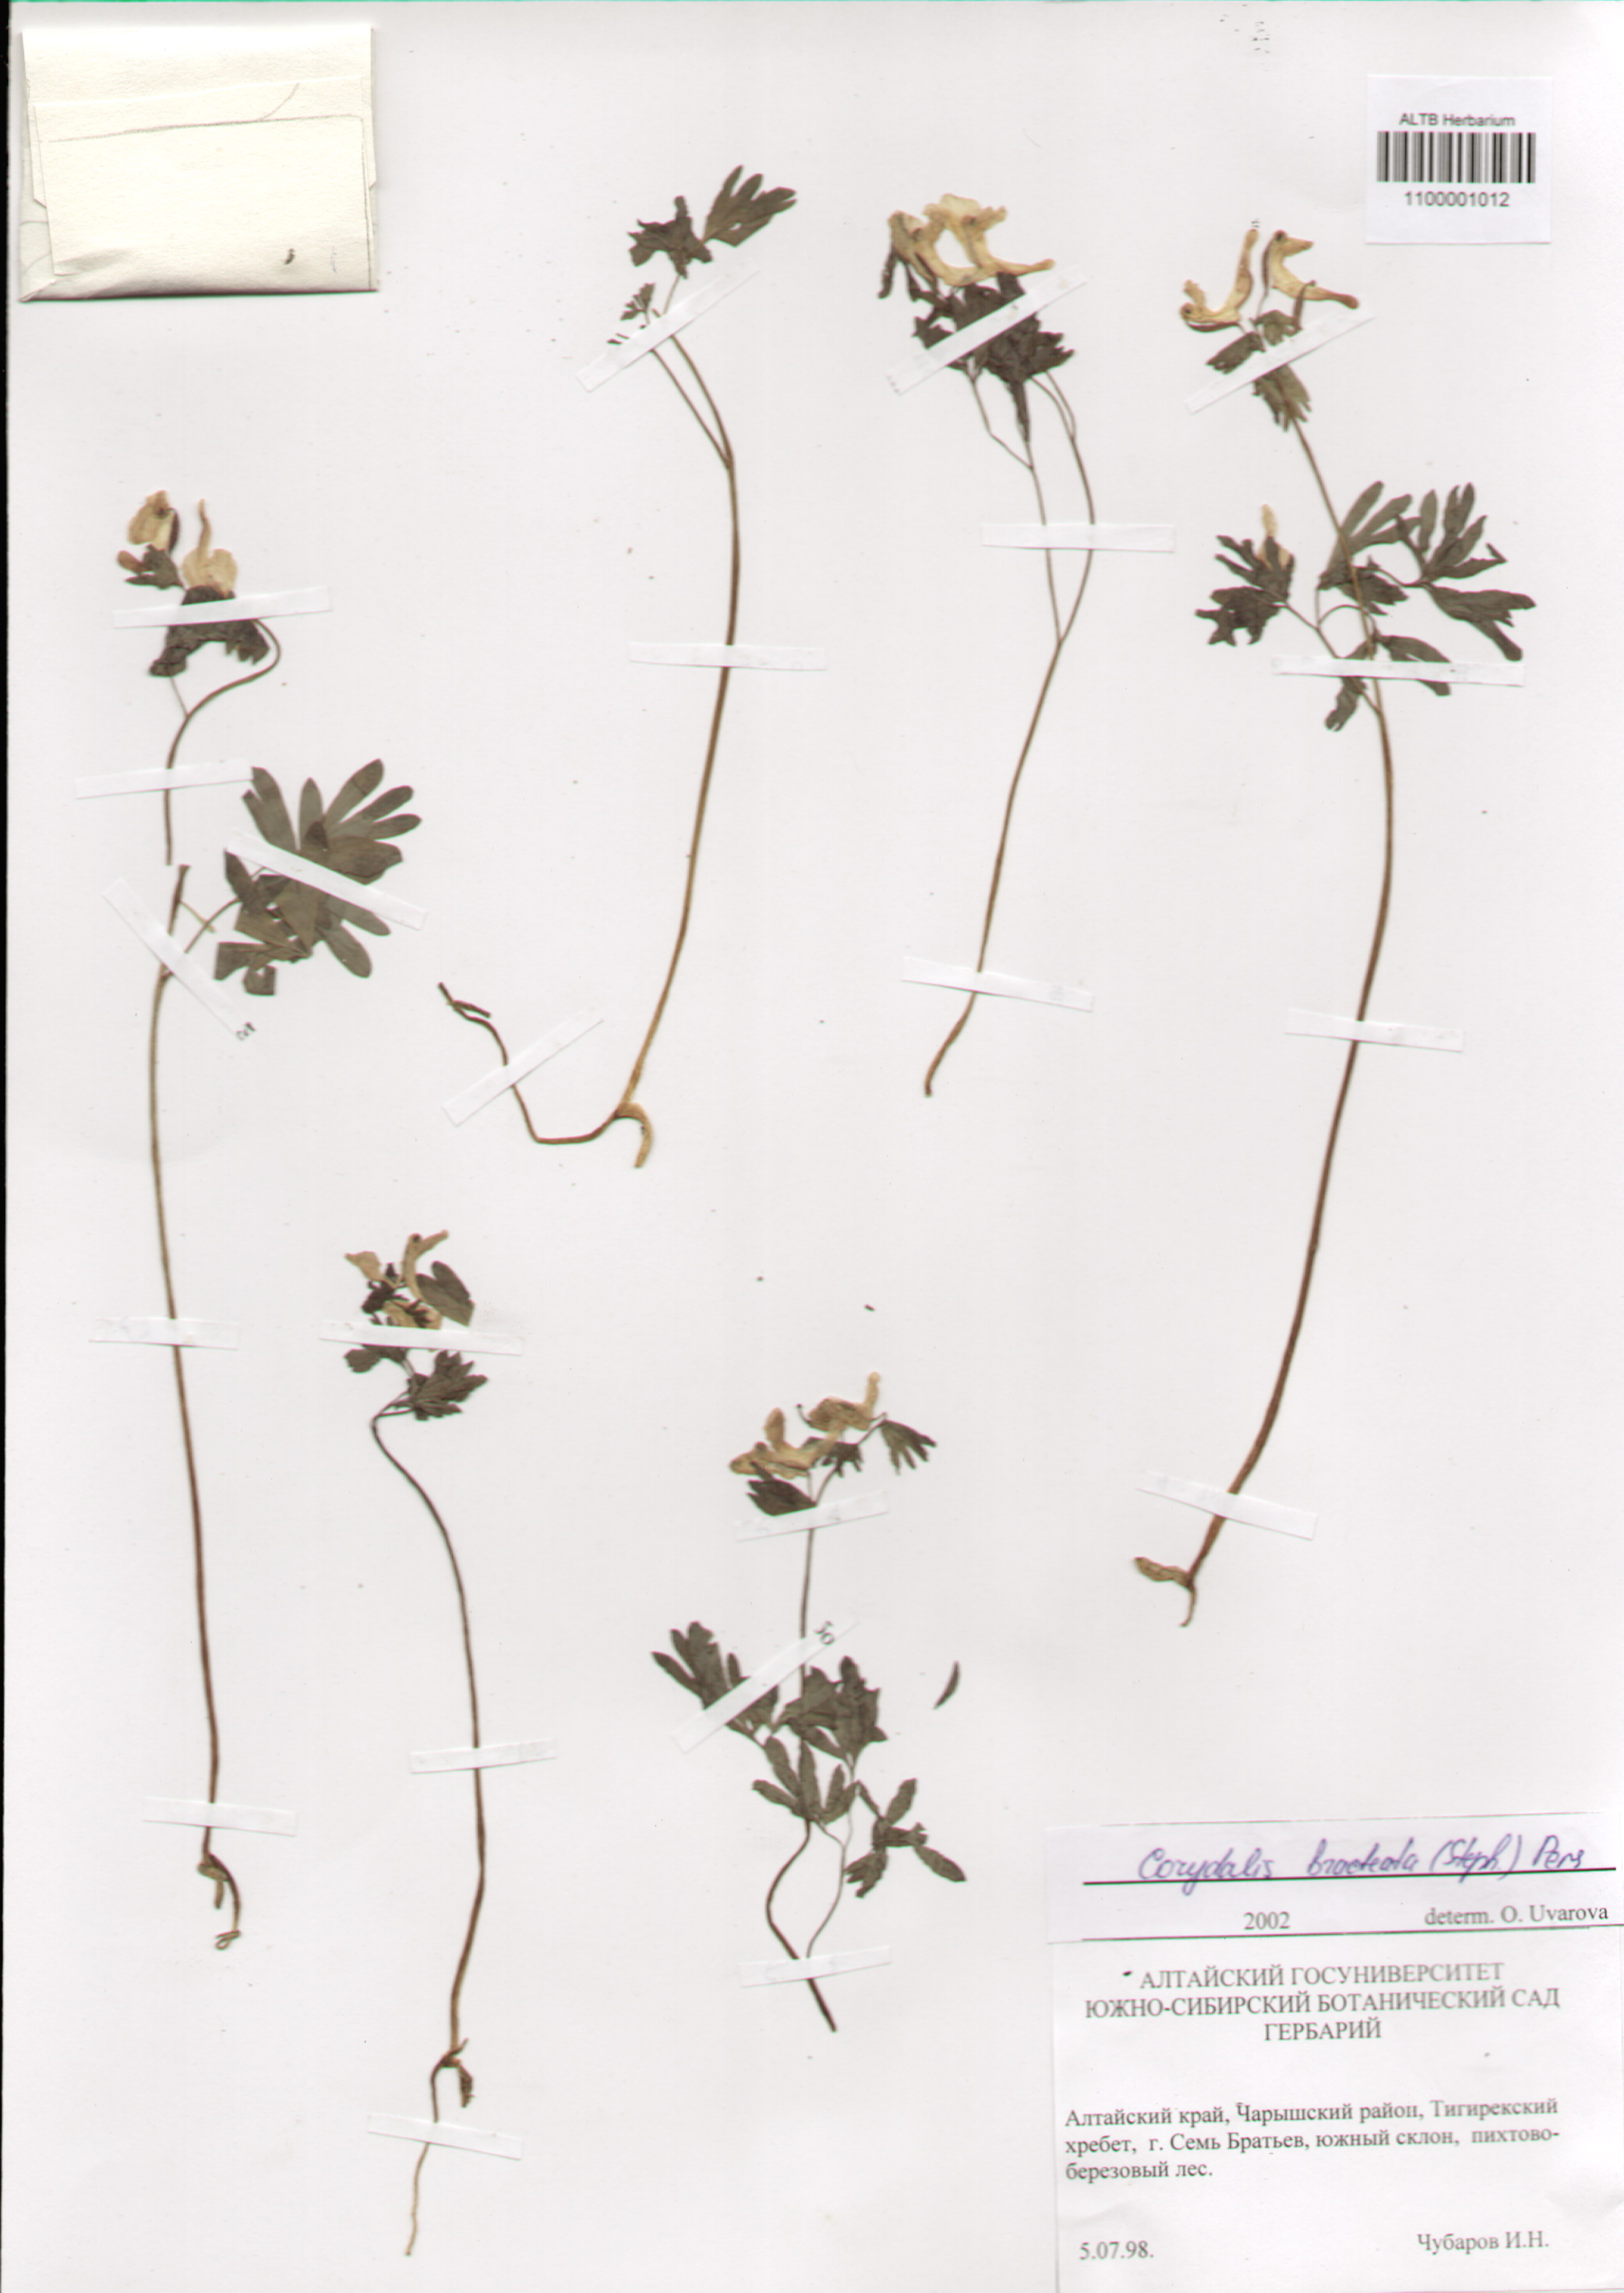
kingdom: Plantae
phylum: Tracheophyta
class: Magnoliopsida
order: Ranunculales
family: Papaveraceae
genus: Corydalis
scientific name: Corydalis bracteata
